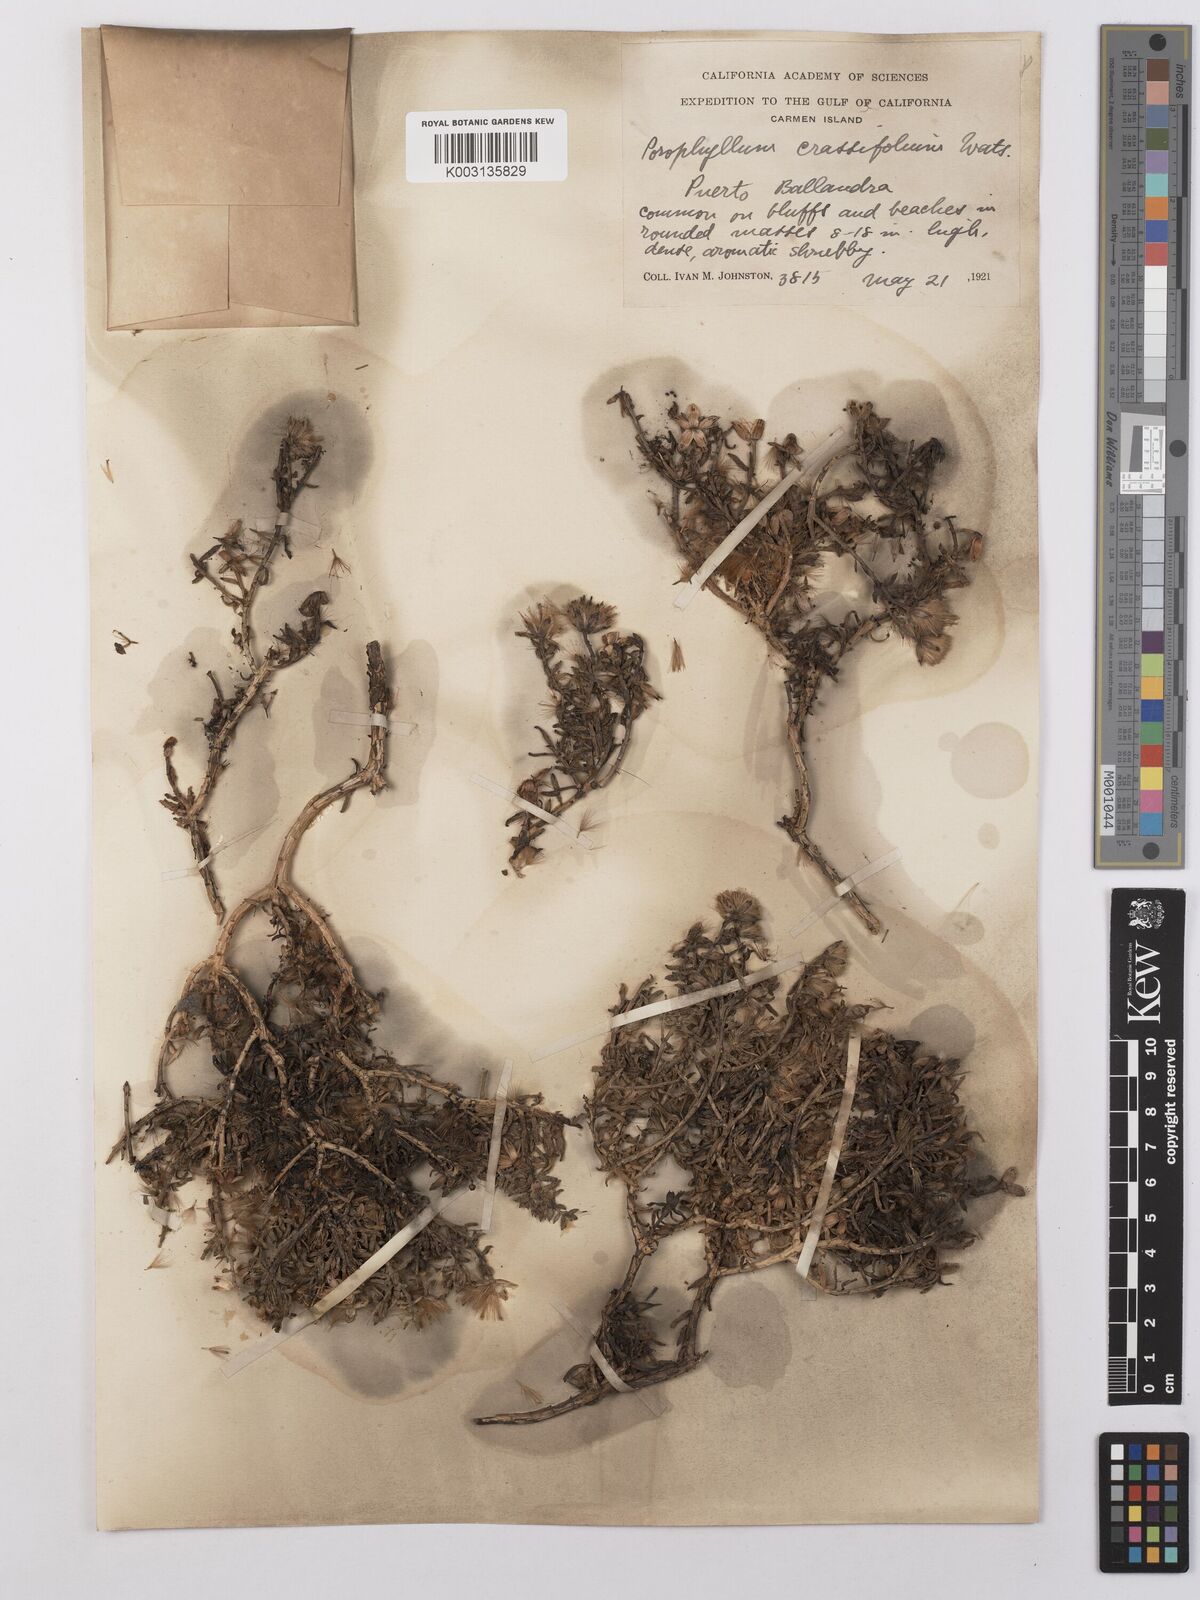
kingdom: Plantae
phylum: Tracheophyta
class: Magnoliopsida
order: Asterales
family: Asteraceae
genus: Bajacalia
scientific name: Bajacalia crassifolia
